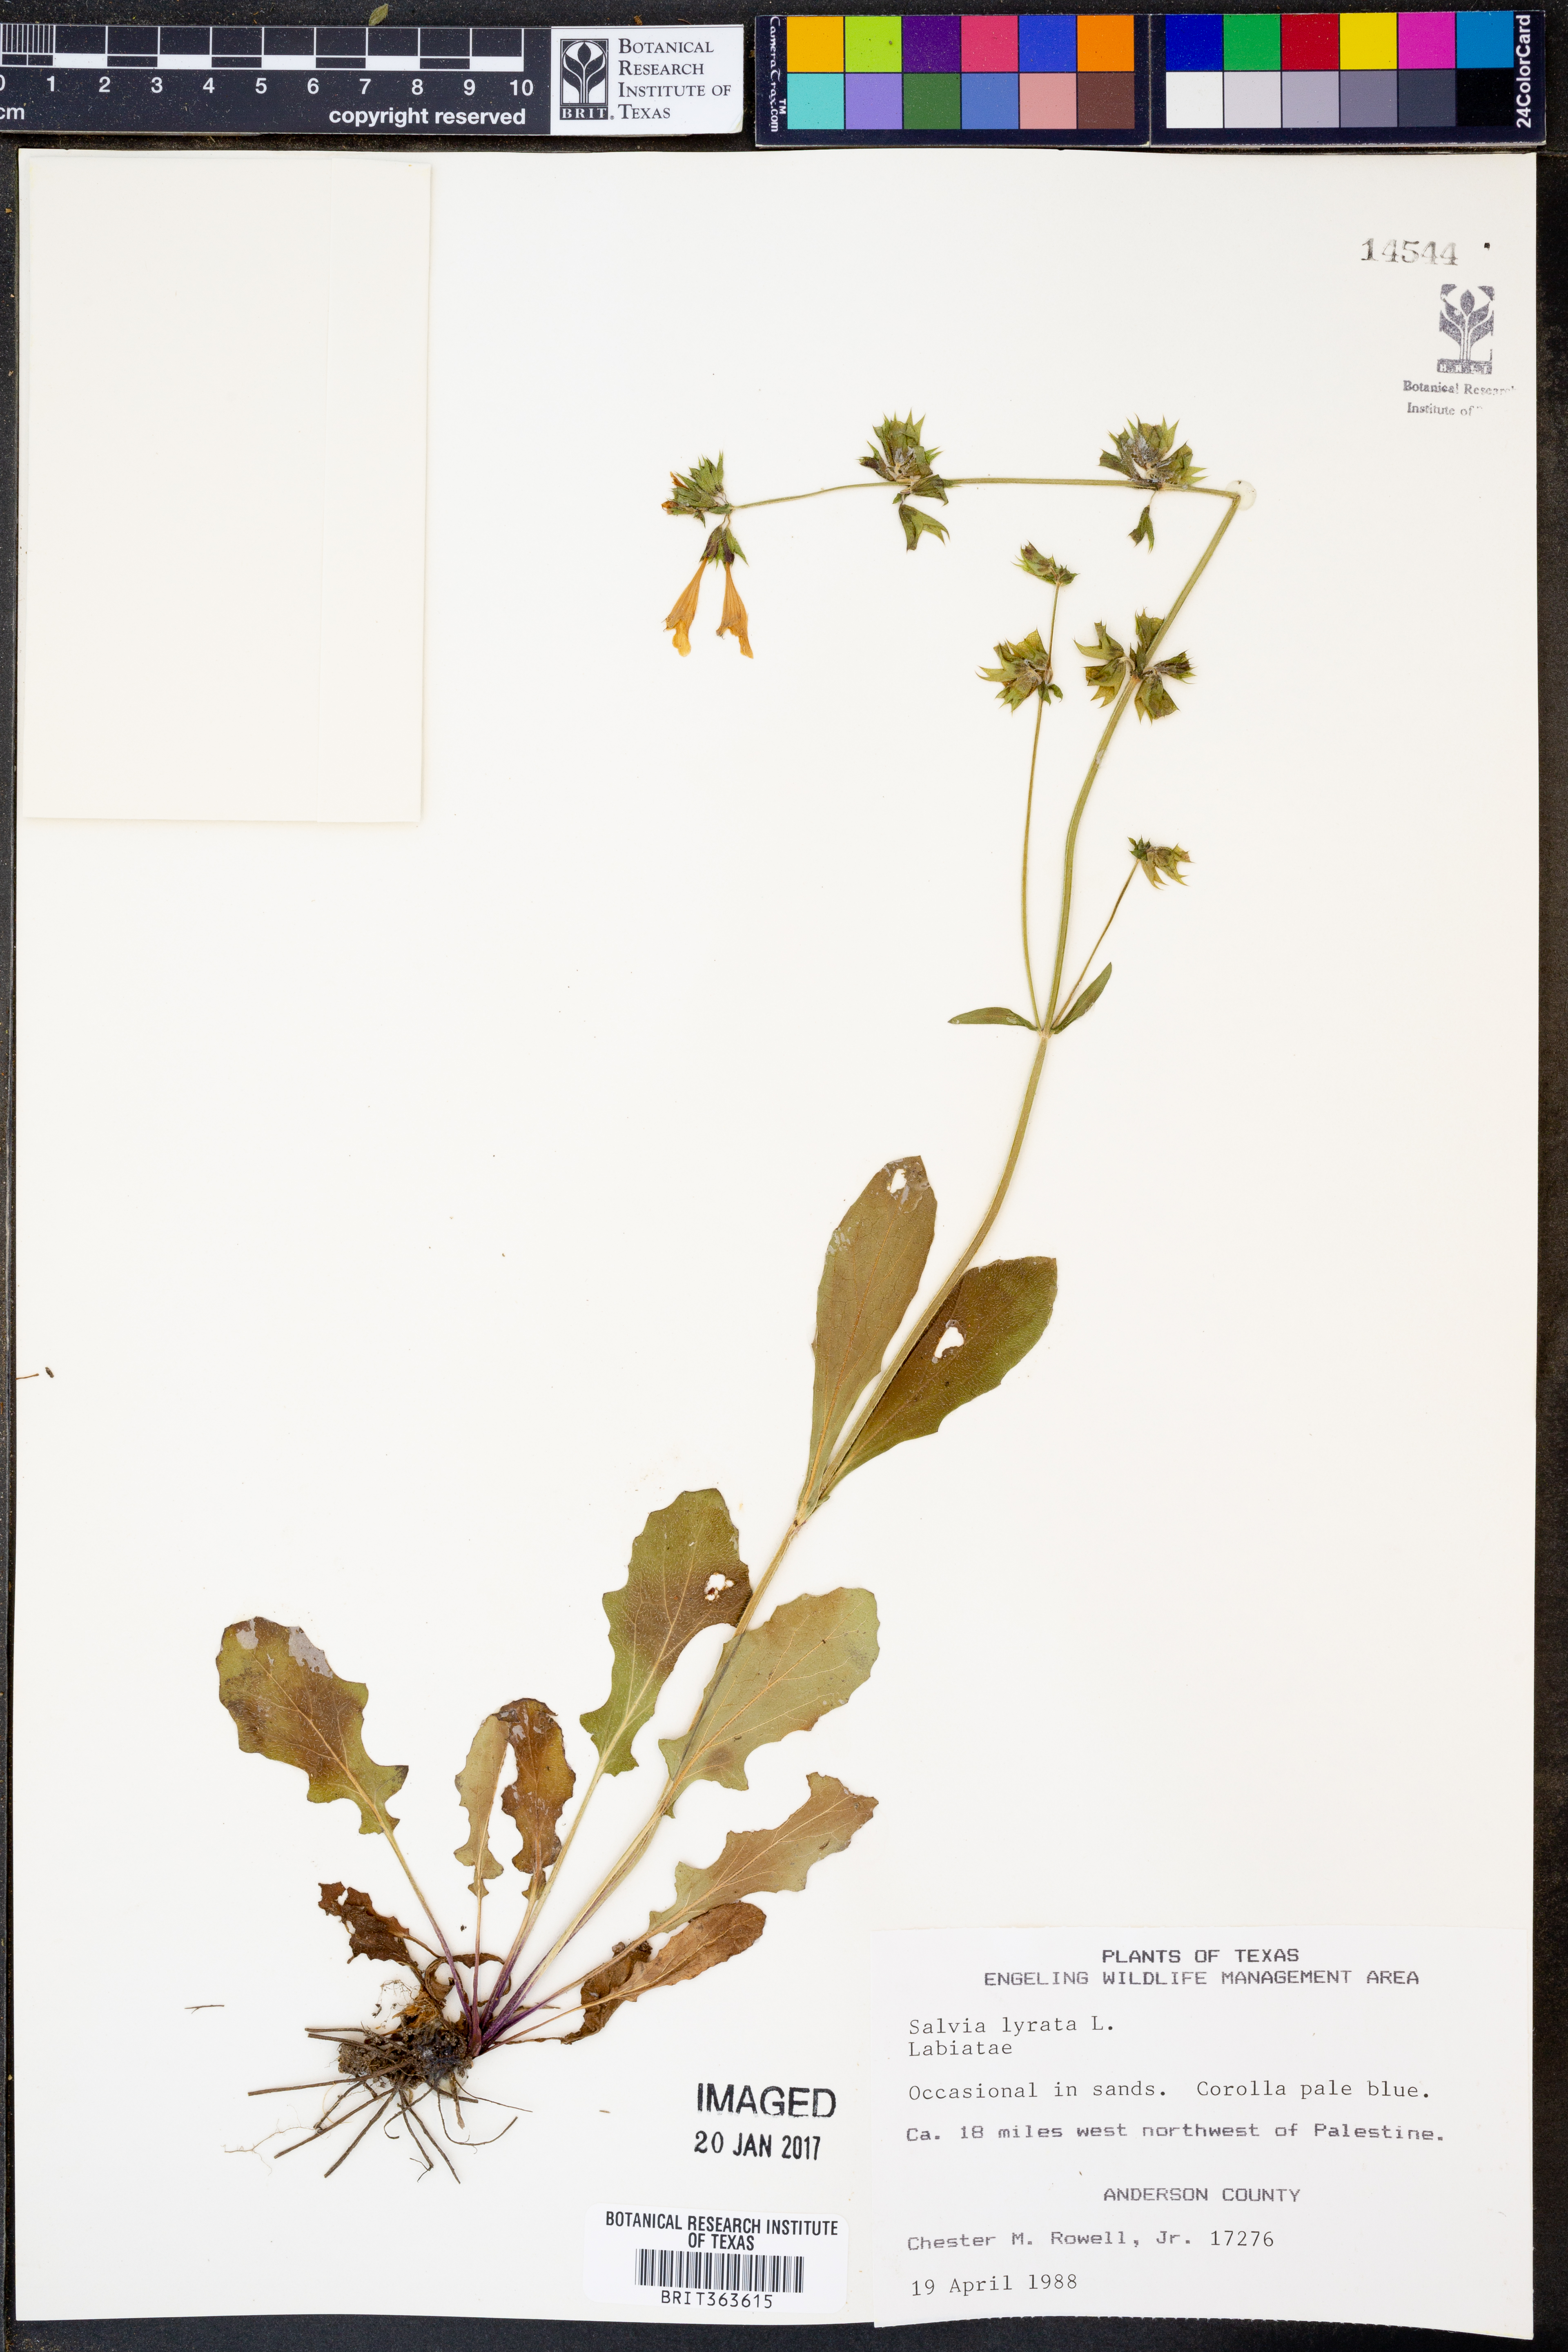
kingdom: Plantae
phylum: Tracheophyta
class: Magnoliopsida
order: Lamiales
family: Lamiaceae
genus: Salvia
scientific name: Salvia lyrata
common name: Cancerweed
